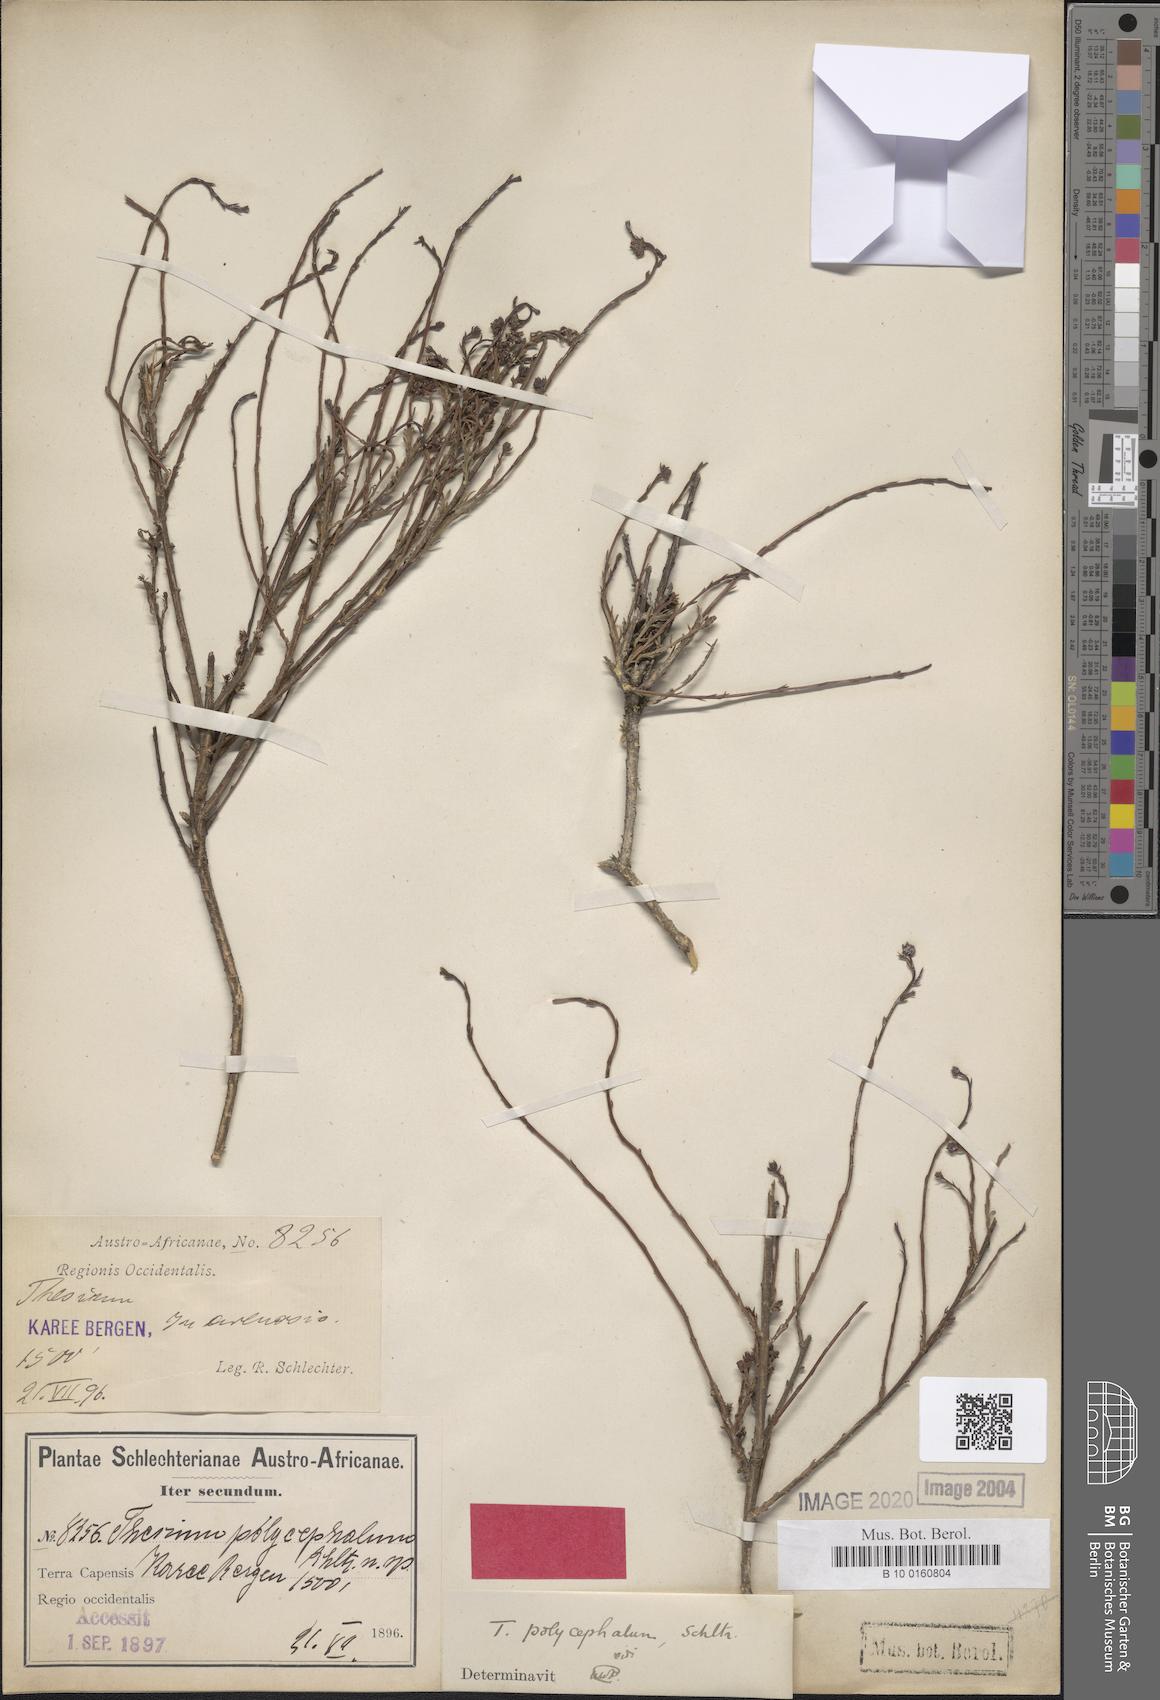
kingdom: Plantae
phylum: Tracheophyta
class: Magnoliopsida
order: Santalales
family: Thesiaceae
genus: Thesium
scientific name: Thesium polycephalum
